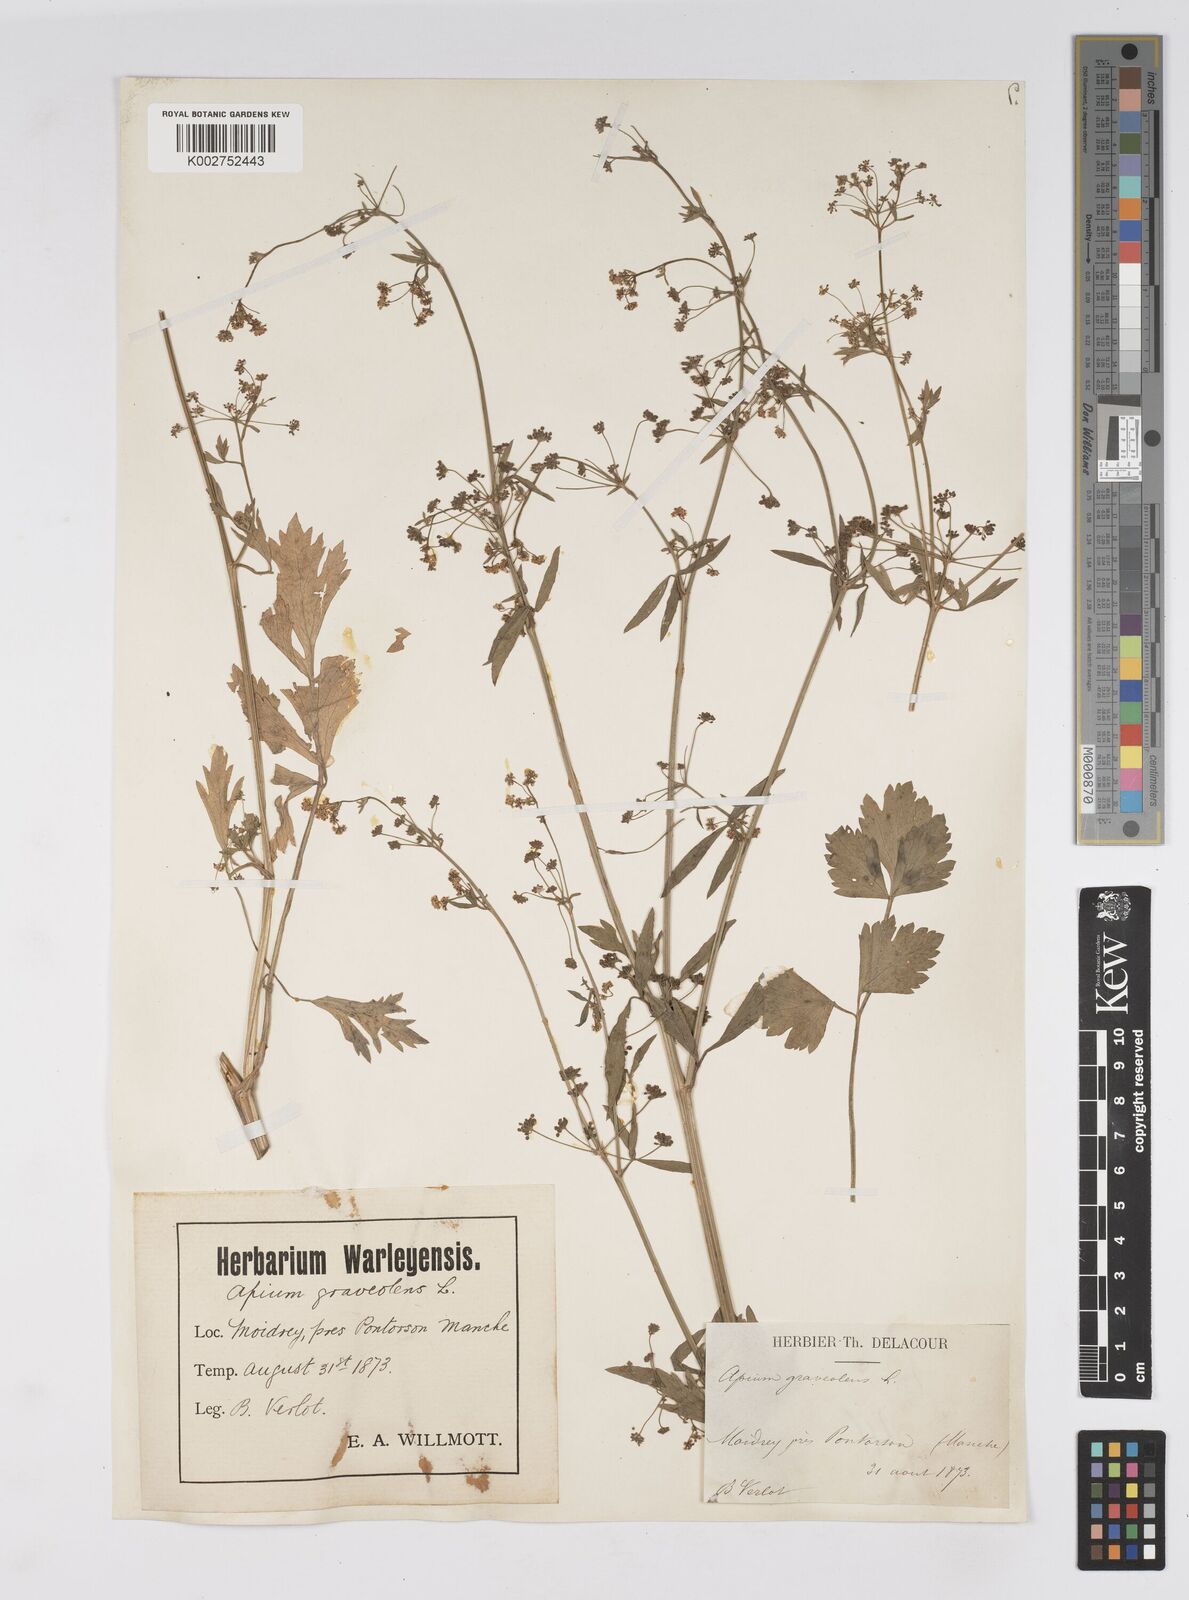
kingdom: Plantae
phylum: Tracheophyta
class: Magnoliopsida
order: Apiales
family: Apiaceae
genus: Apium
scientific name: Apium graveolens
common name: Wild celery
